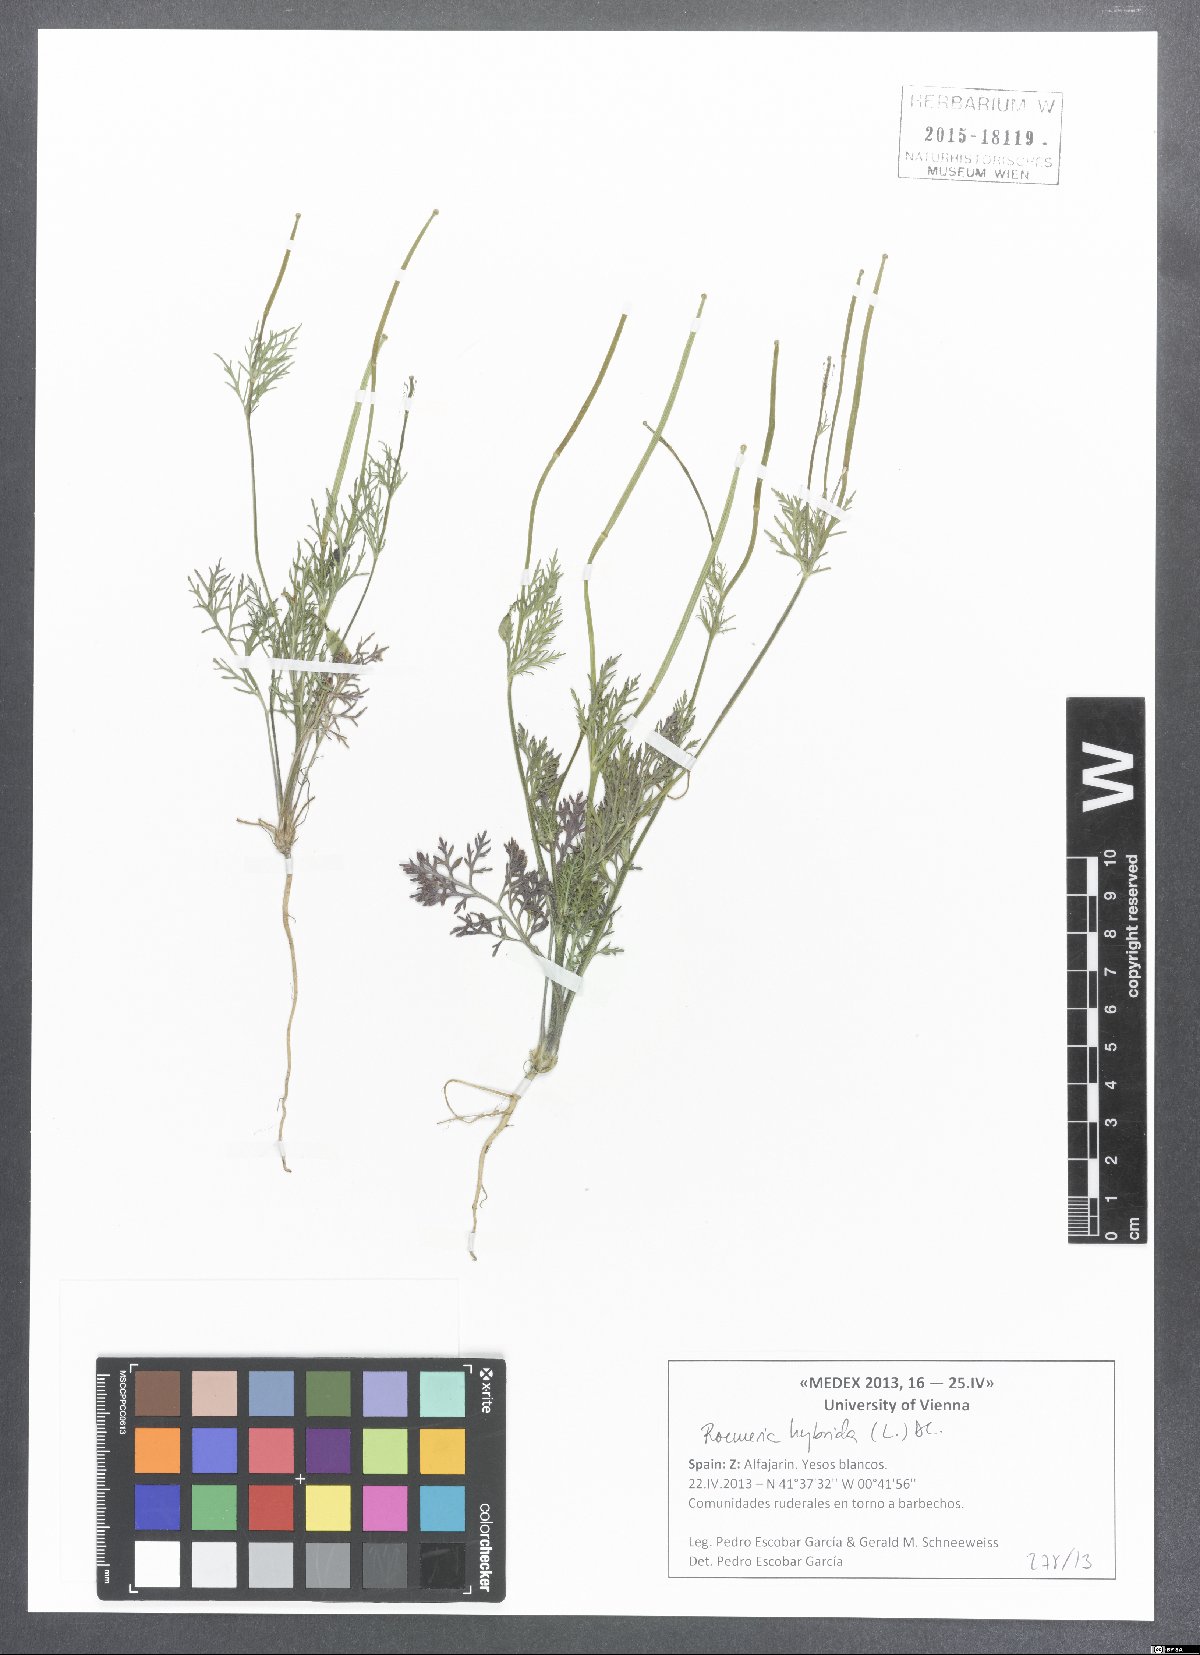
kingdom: Plantae
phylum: Tracheophyta
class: Magnoliopsida
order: Ranunculales
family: Papaveraceae
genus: Roemeria
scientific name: Roemeria hybrida
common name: Violet horned-poppy
